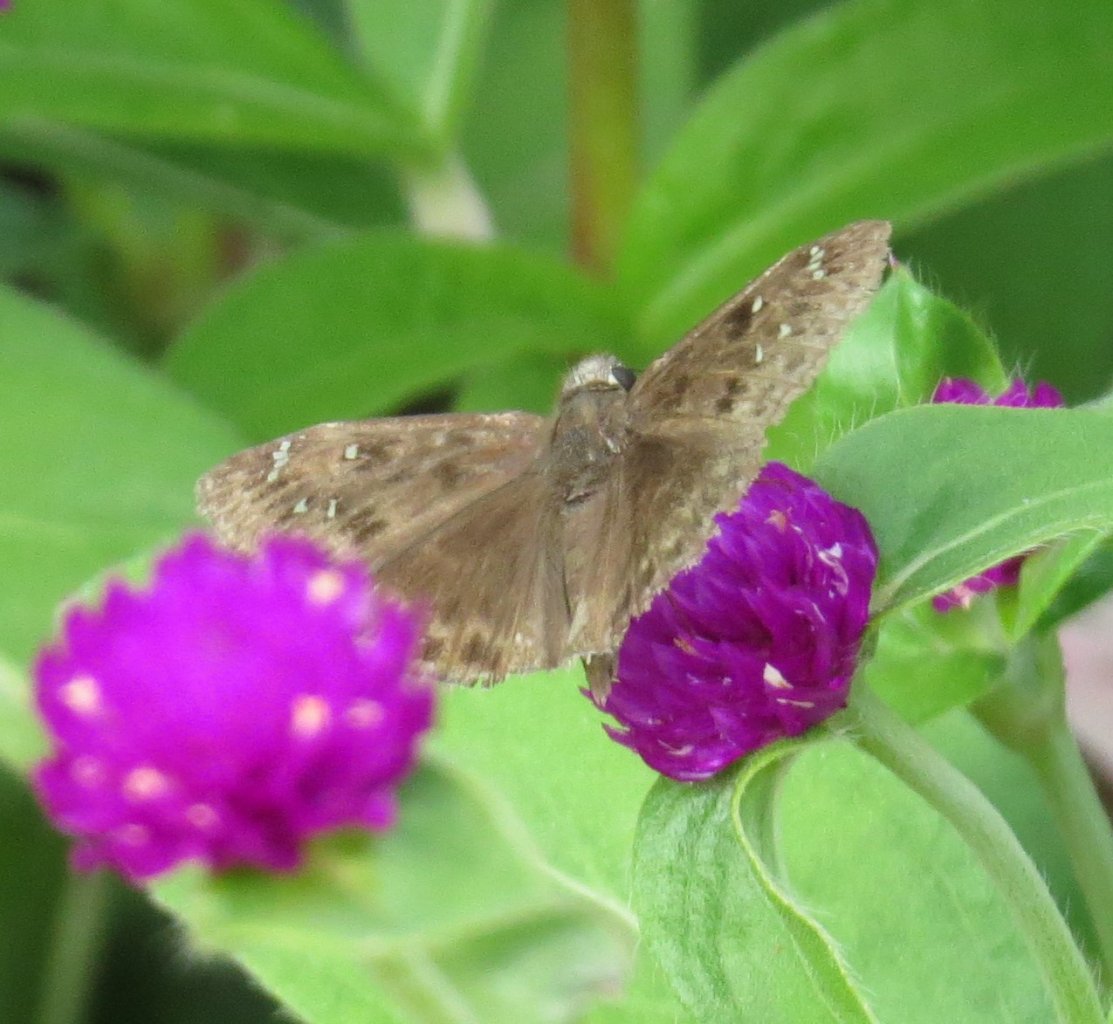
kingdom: Animalia
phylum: Arthropoda
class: Insecta
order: Lepidoptera
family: Hesperiidae
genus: Gesta
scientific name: Gesta
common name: Horace's Duskywing
